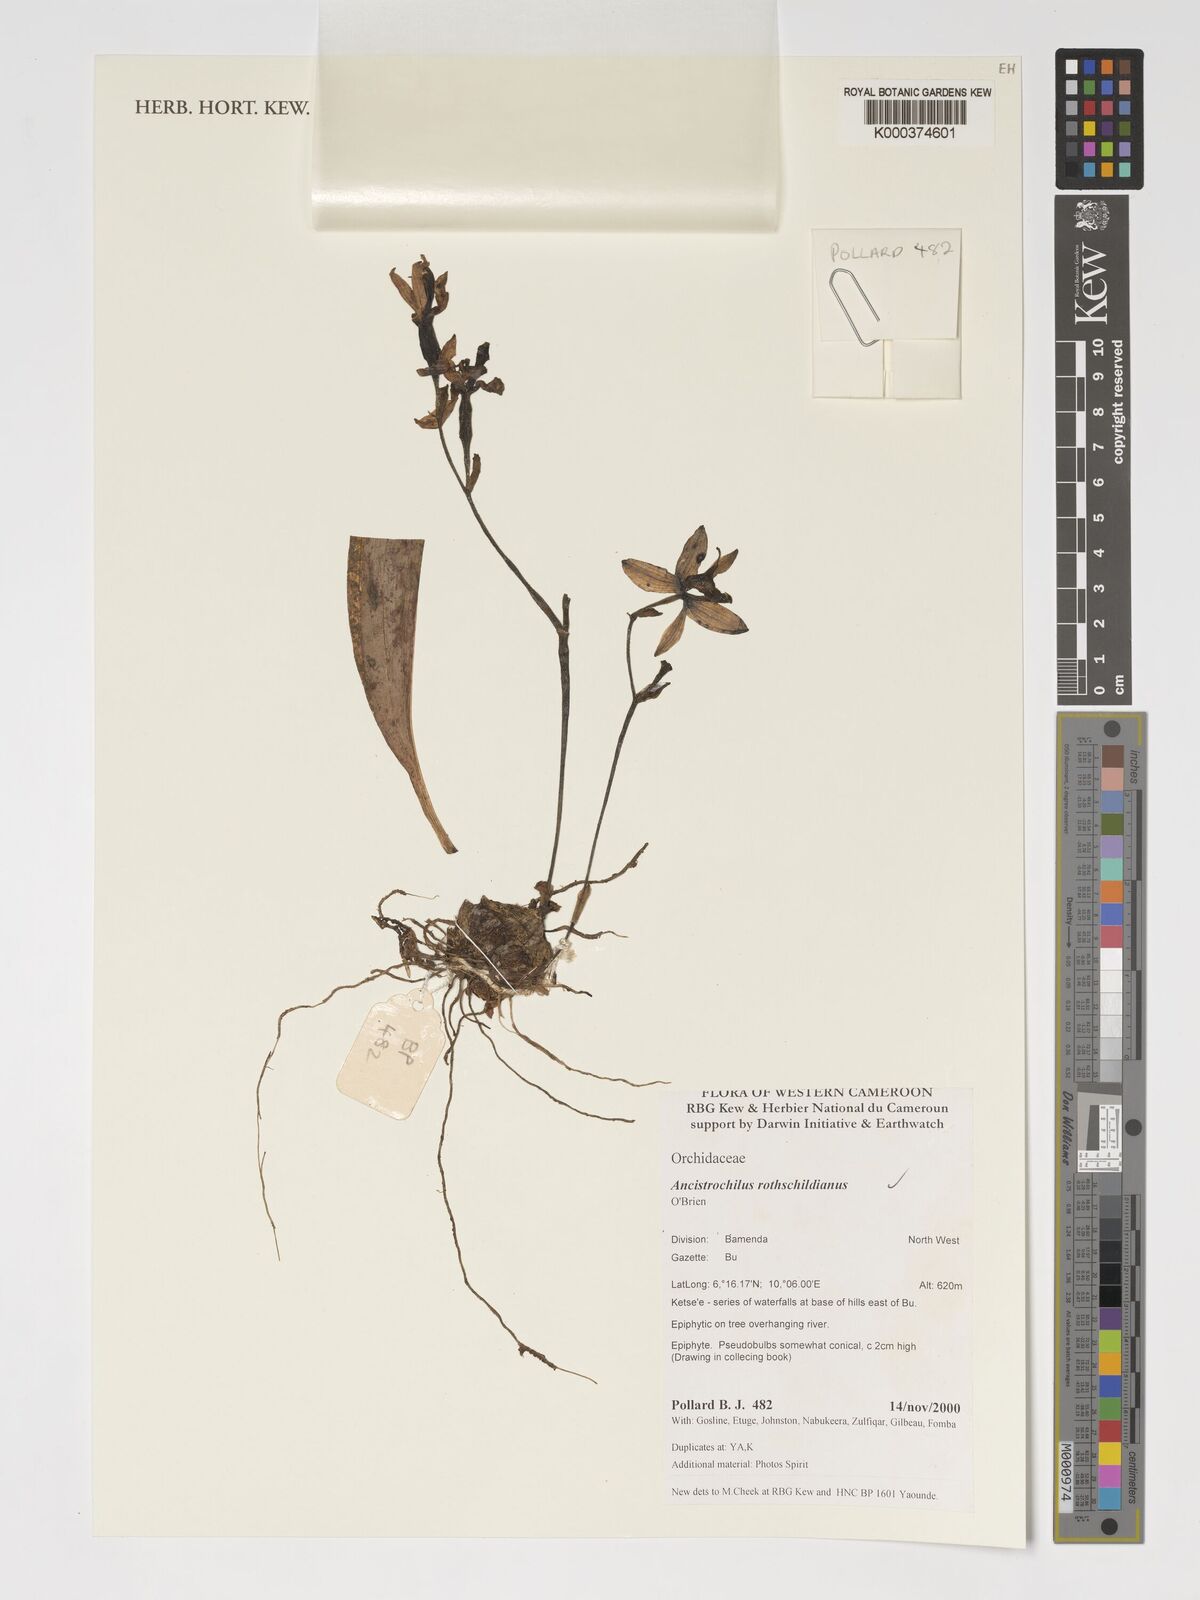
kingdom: Plantae
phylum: Tracheophyta
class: Liliopsida
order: Asparagales
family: Orchidaceae
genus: Ancistrochilus
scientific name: Ancistrochilus rothschildianus
